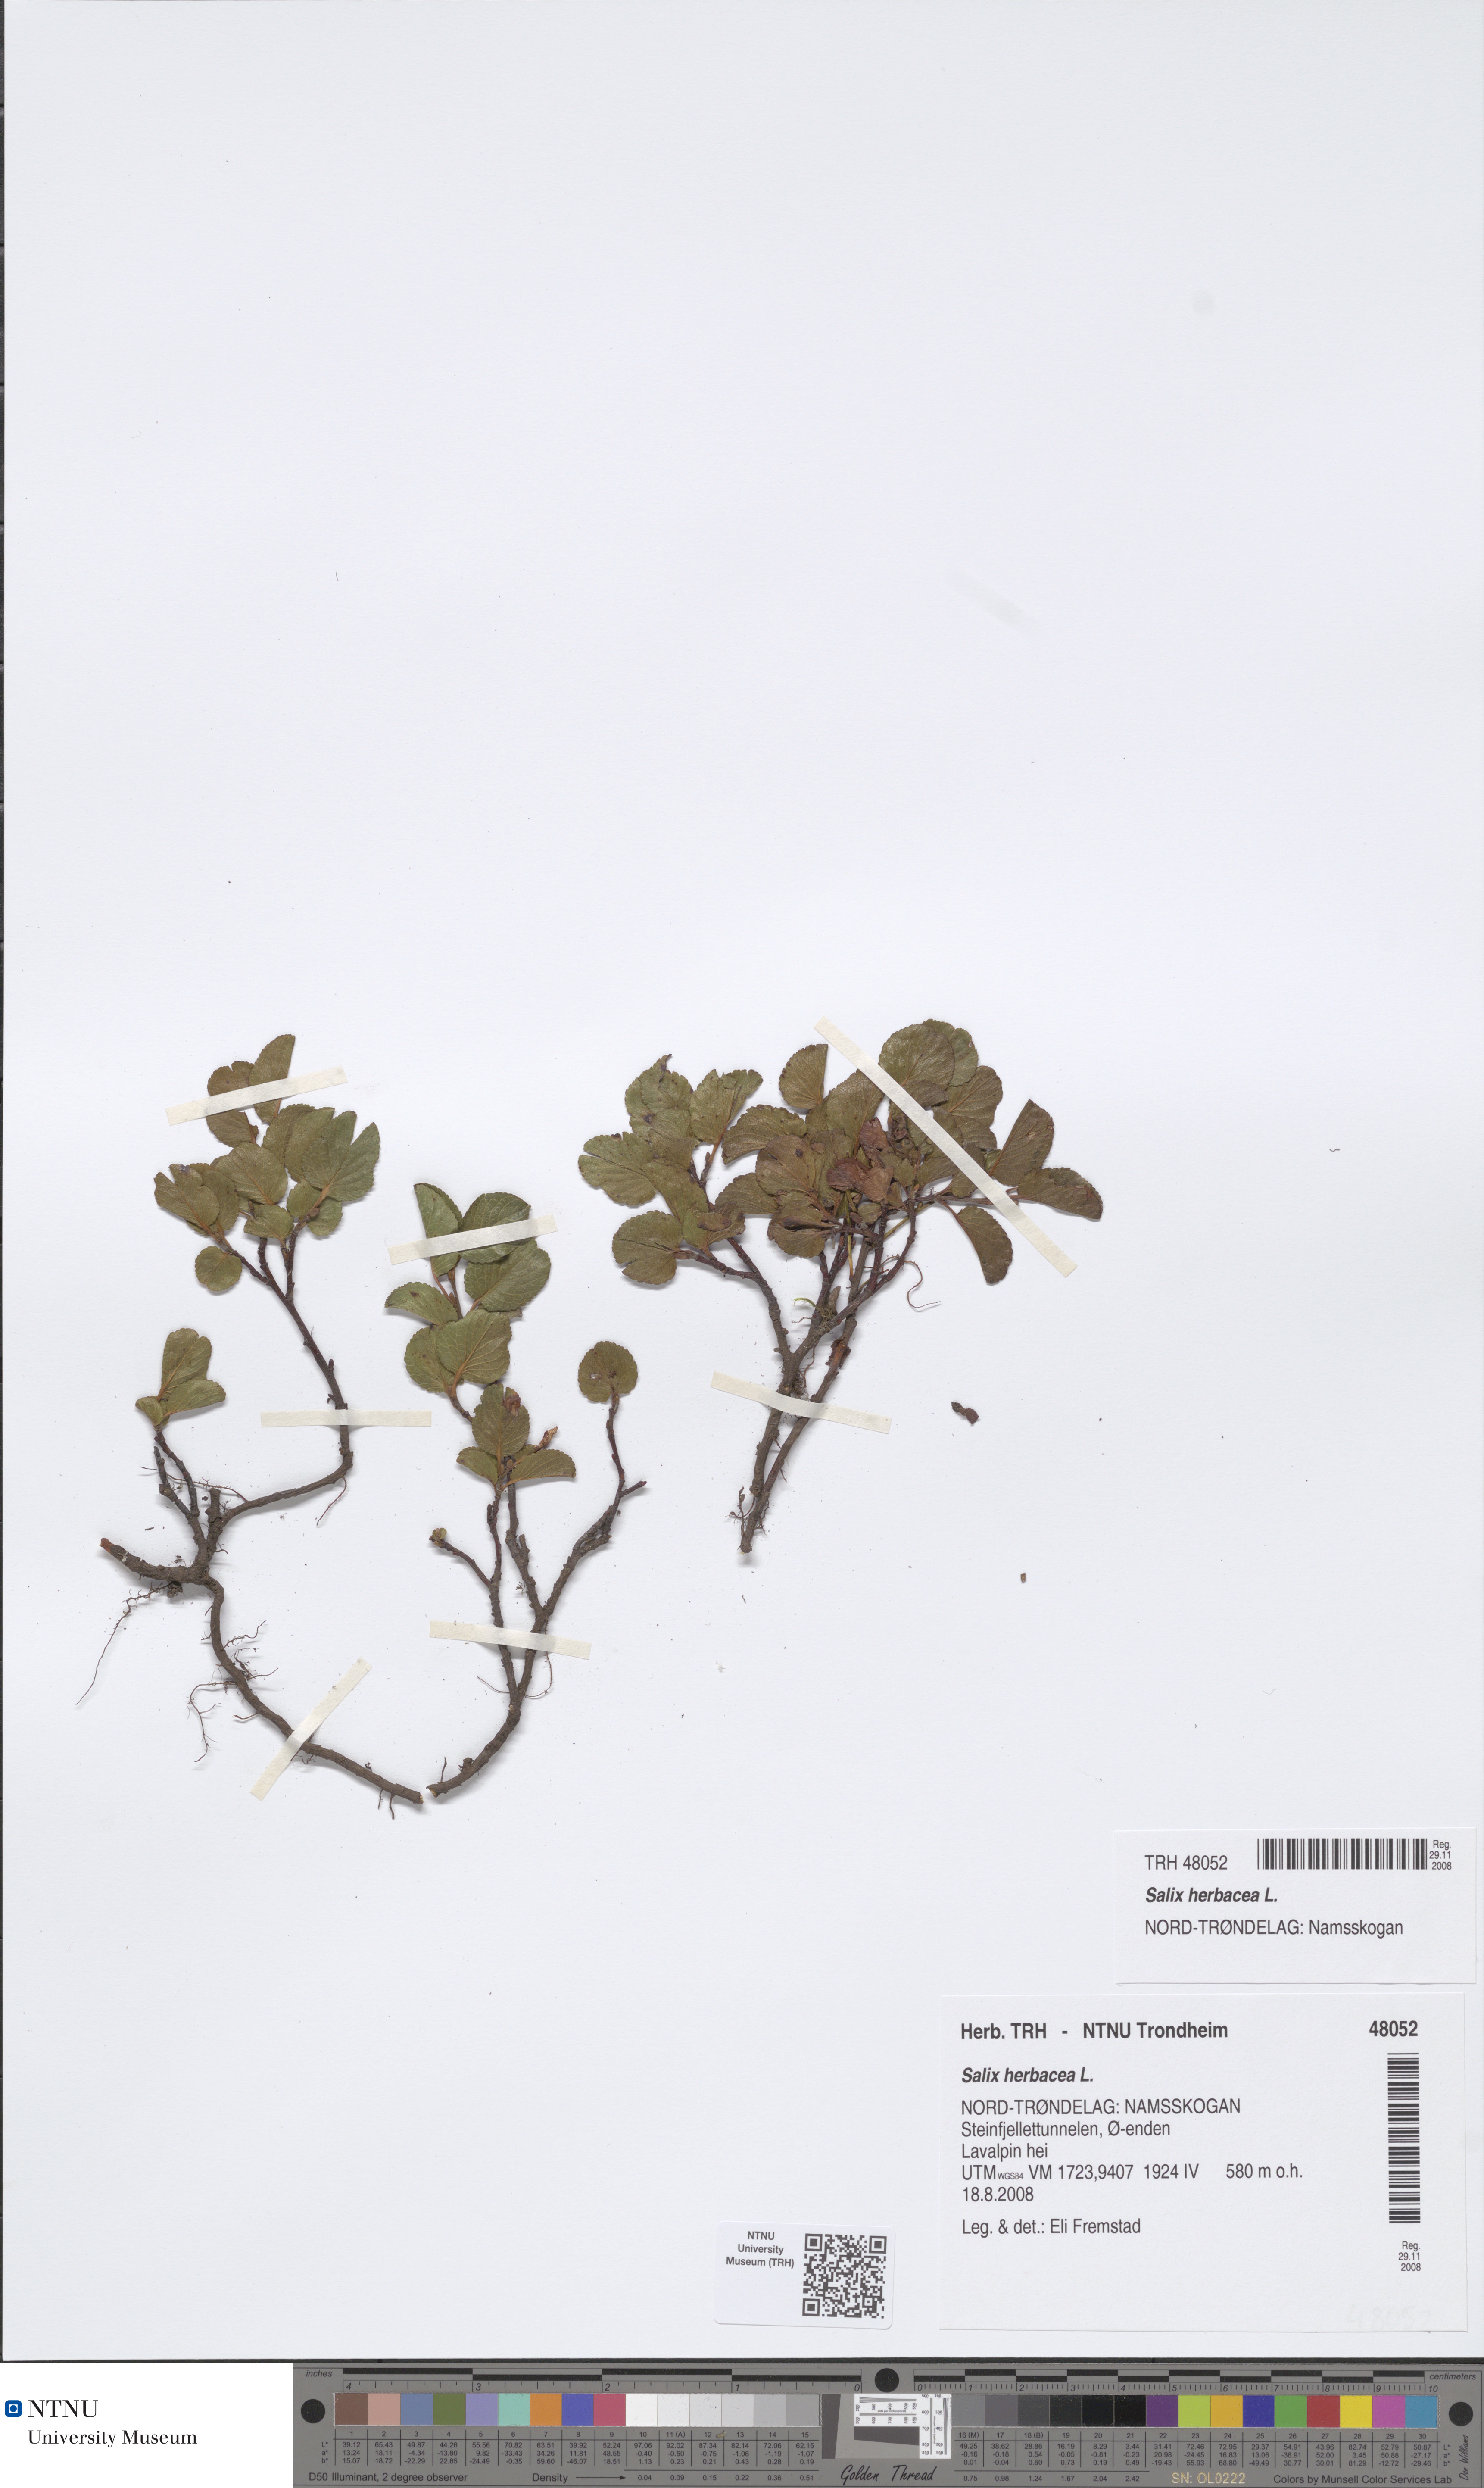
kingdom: Plantae
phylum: Tracheophyta
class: Magnoliopsida
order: Malpighiales
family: Salicaceae
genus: Salix
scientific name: Salix herbacea
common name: Dwarf willow
